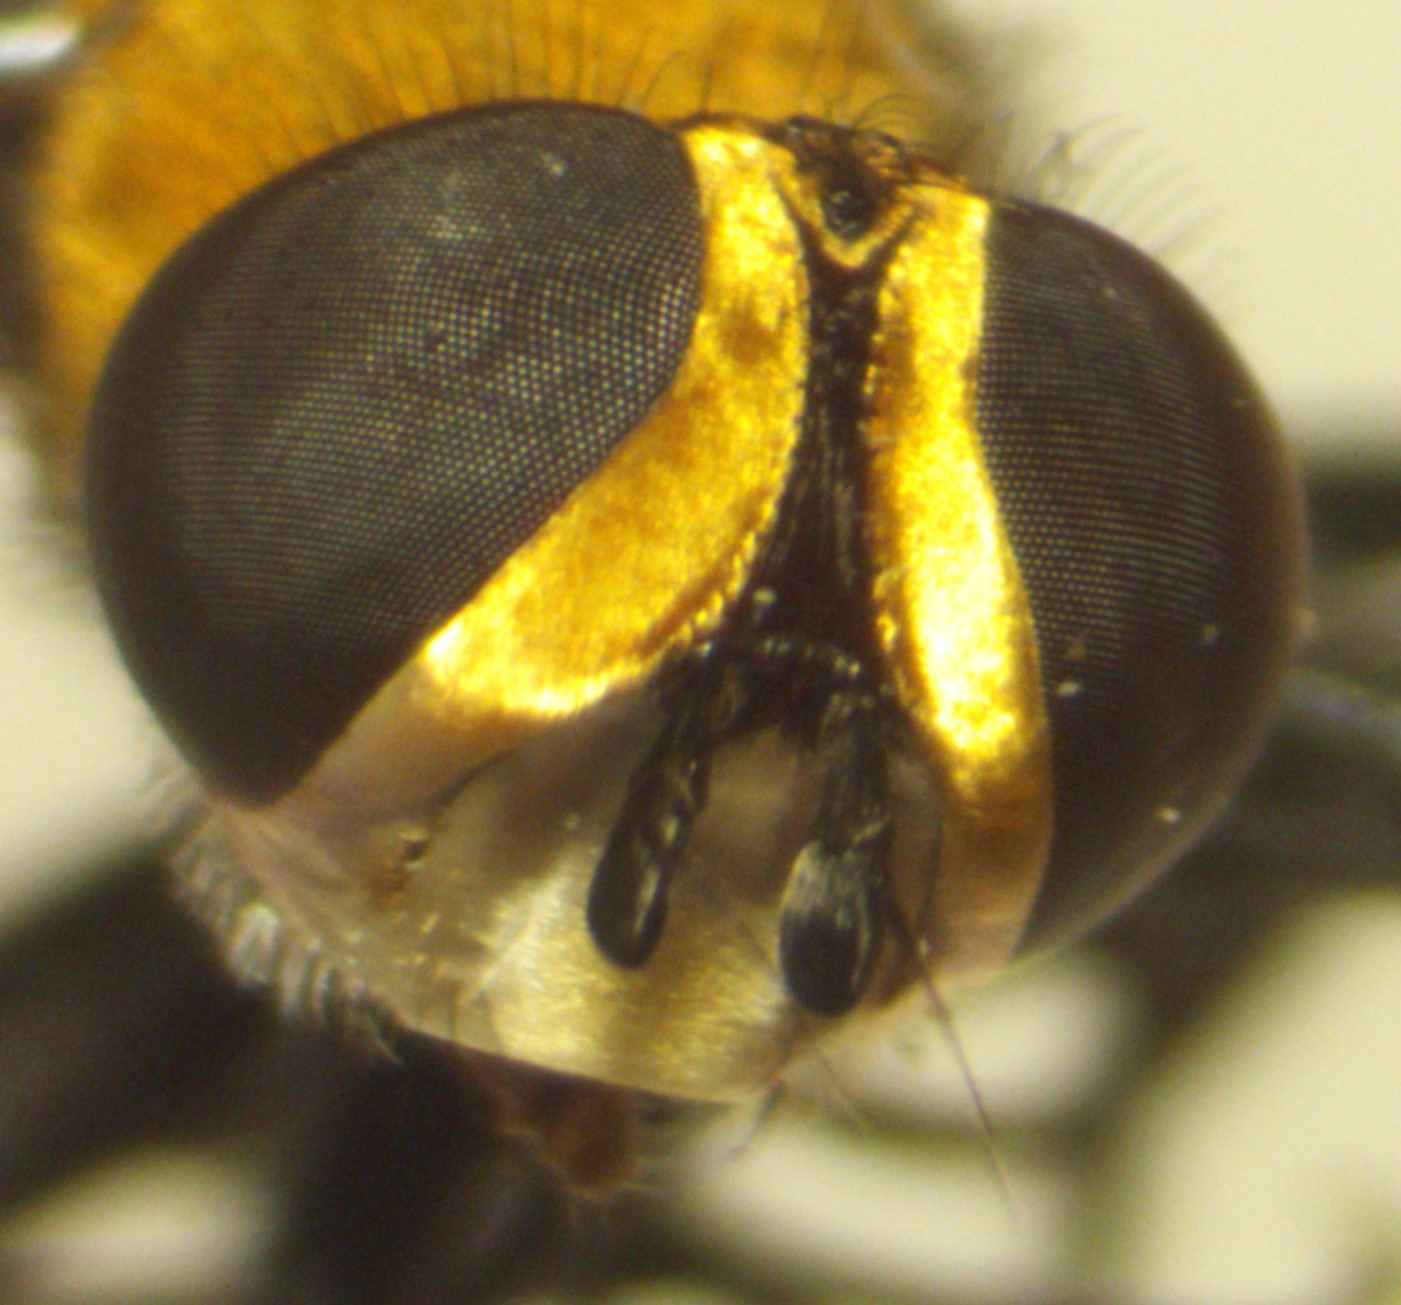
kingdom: Animalia
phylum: Arthropoda
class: Insecta
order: Diptera
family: Tachinidae
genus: Cistogaster
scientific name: Cistogaster globosa
